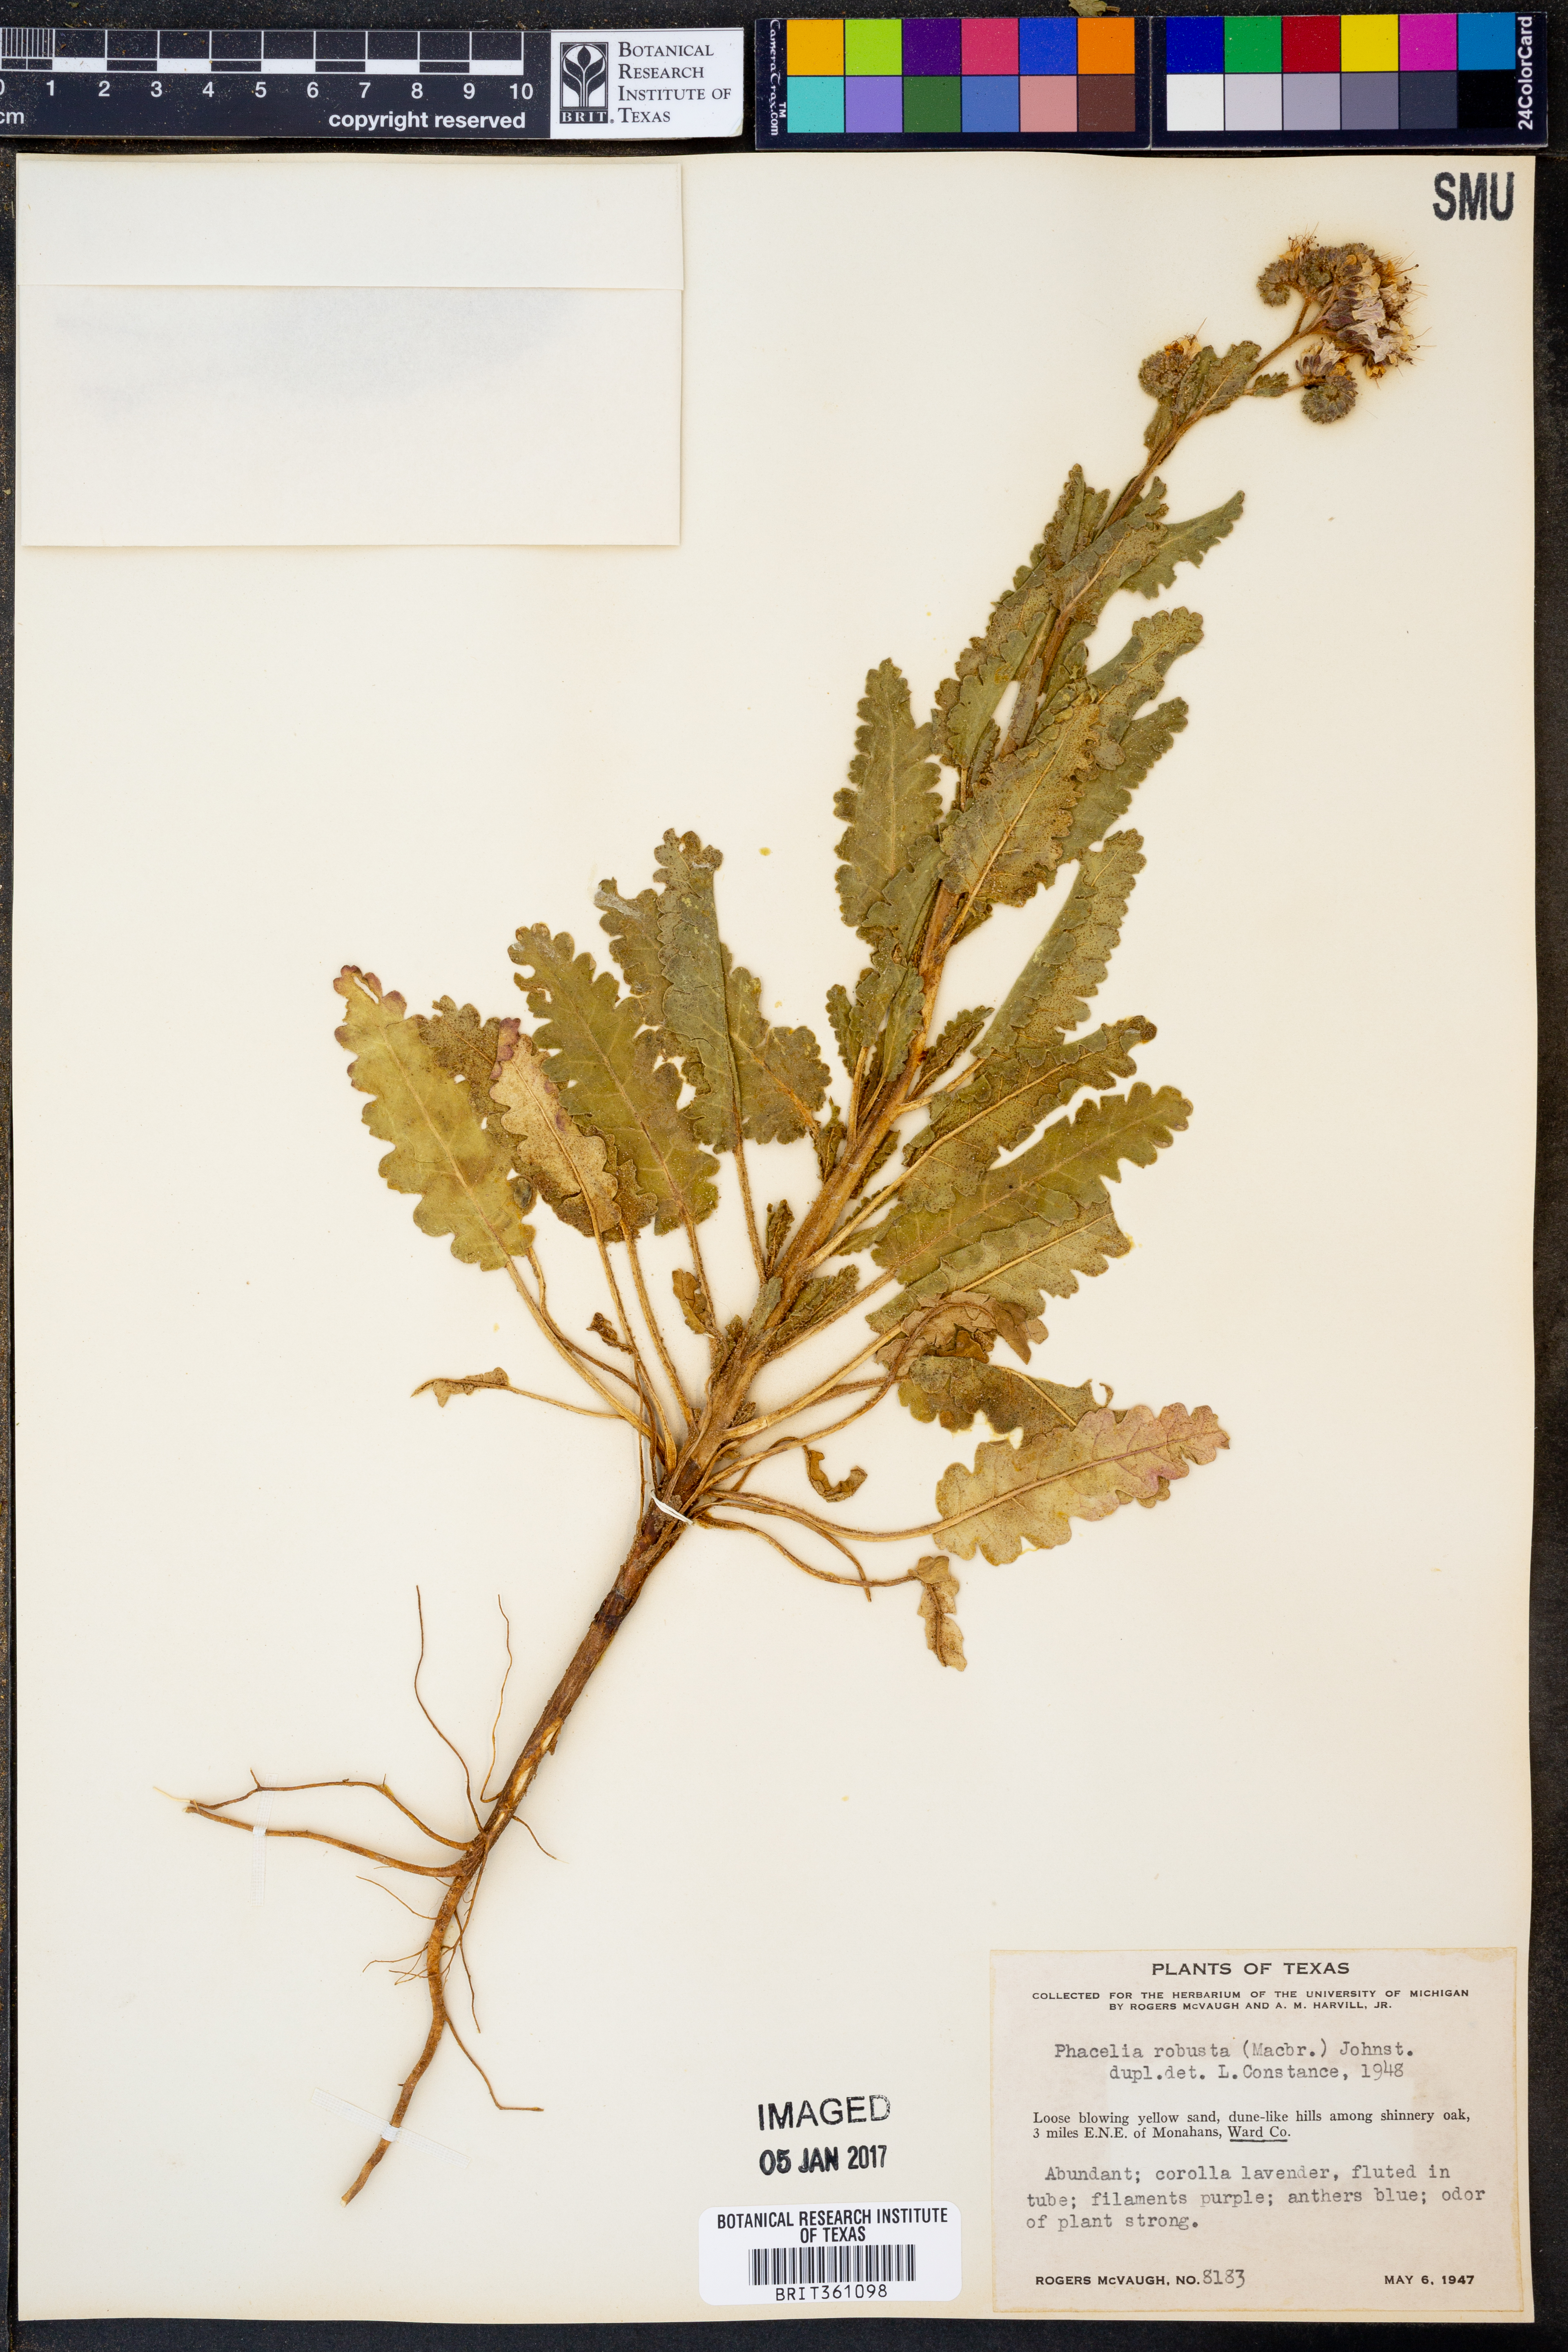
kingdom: Plantae
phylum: Tracheophyta
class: Magnoliopsida
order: Boraginales
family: Hydrophyllaceae
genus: Phacelia
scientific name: Phacelia robusta
